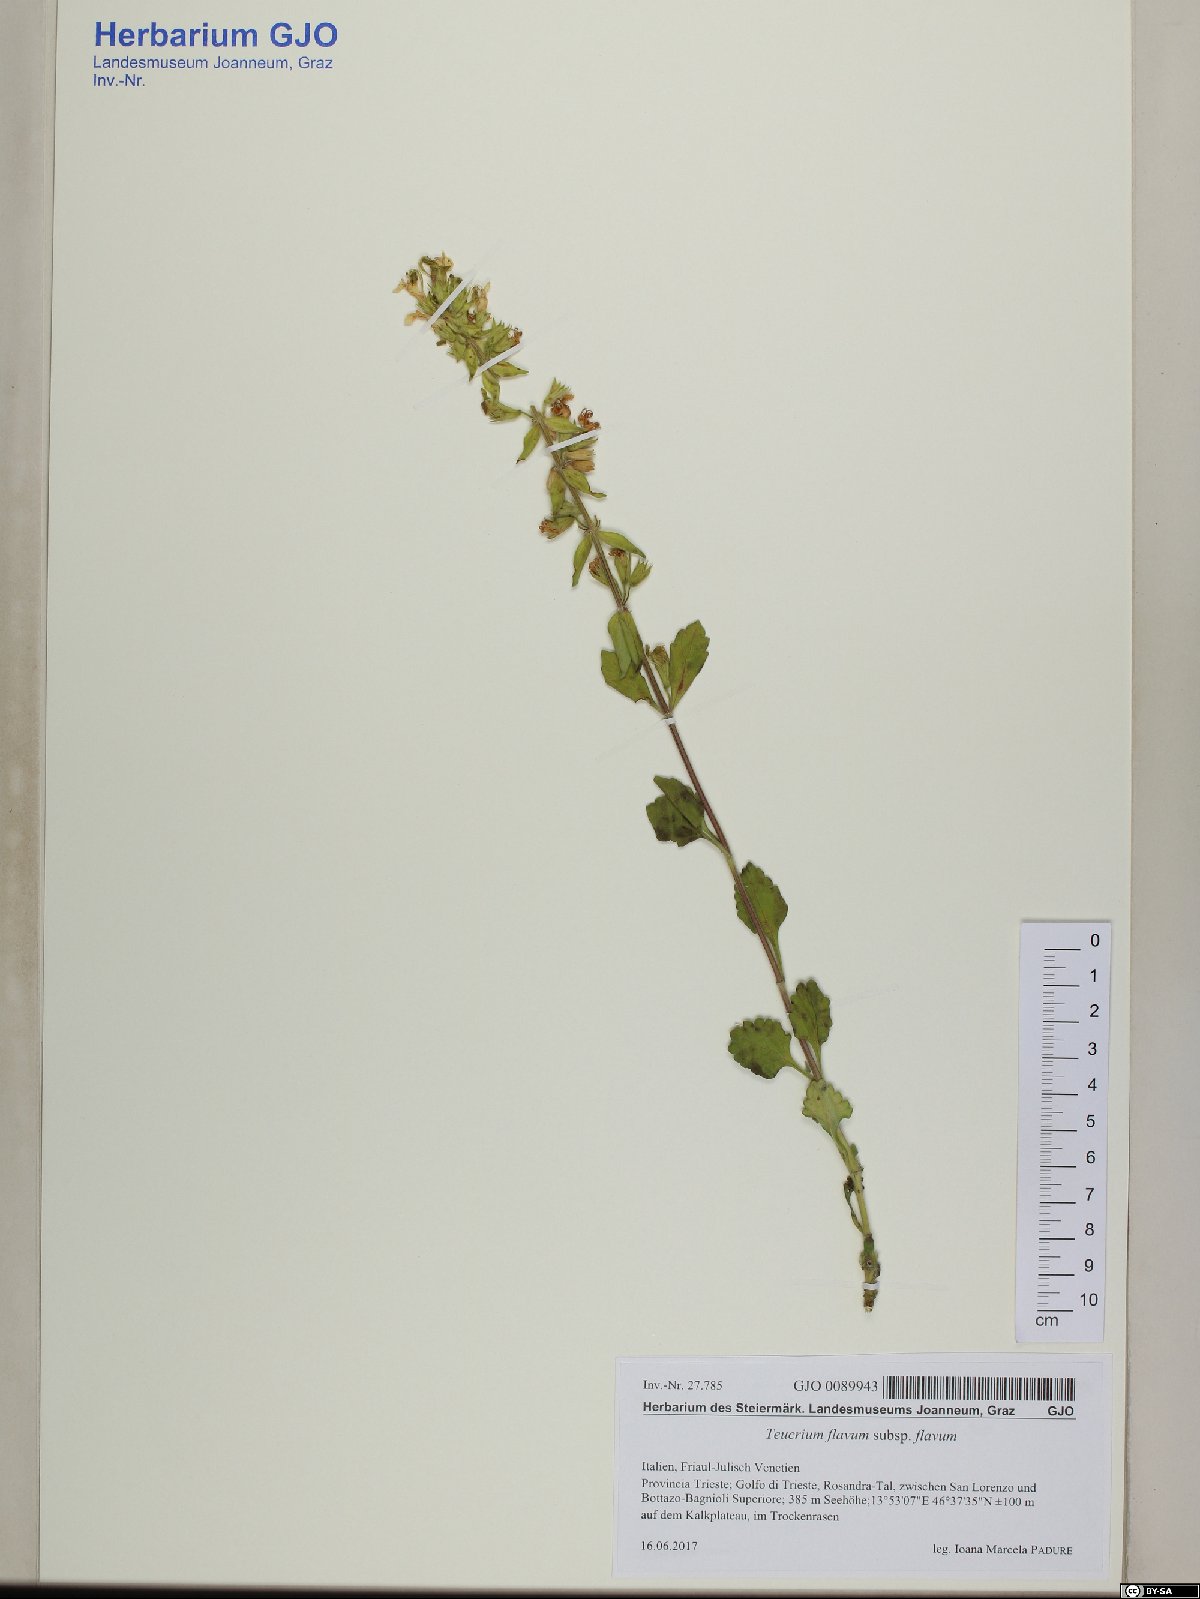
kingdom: Plantae
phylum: Tracheophyta
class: Magnoliopsida
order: Lamiales
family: Lamiaceae
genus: Teucrium
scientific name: Teucrium flavum
